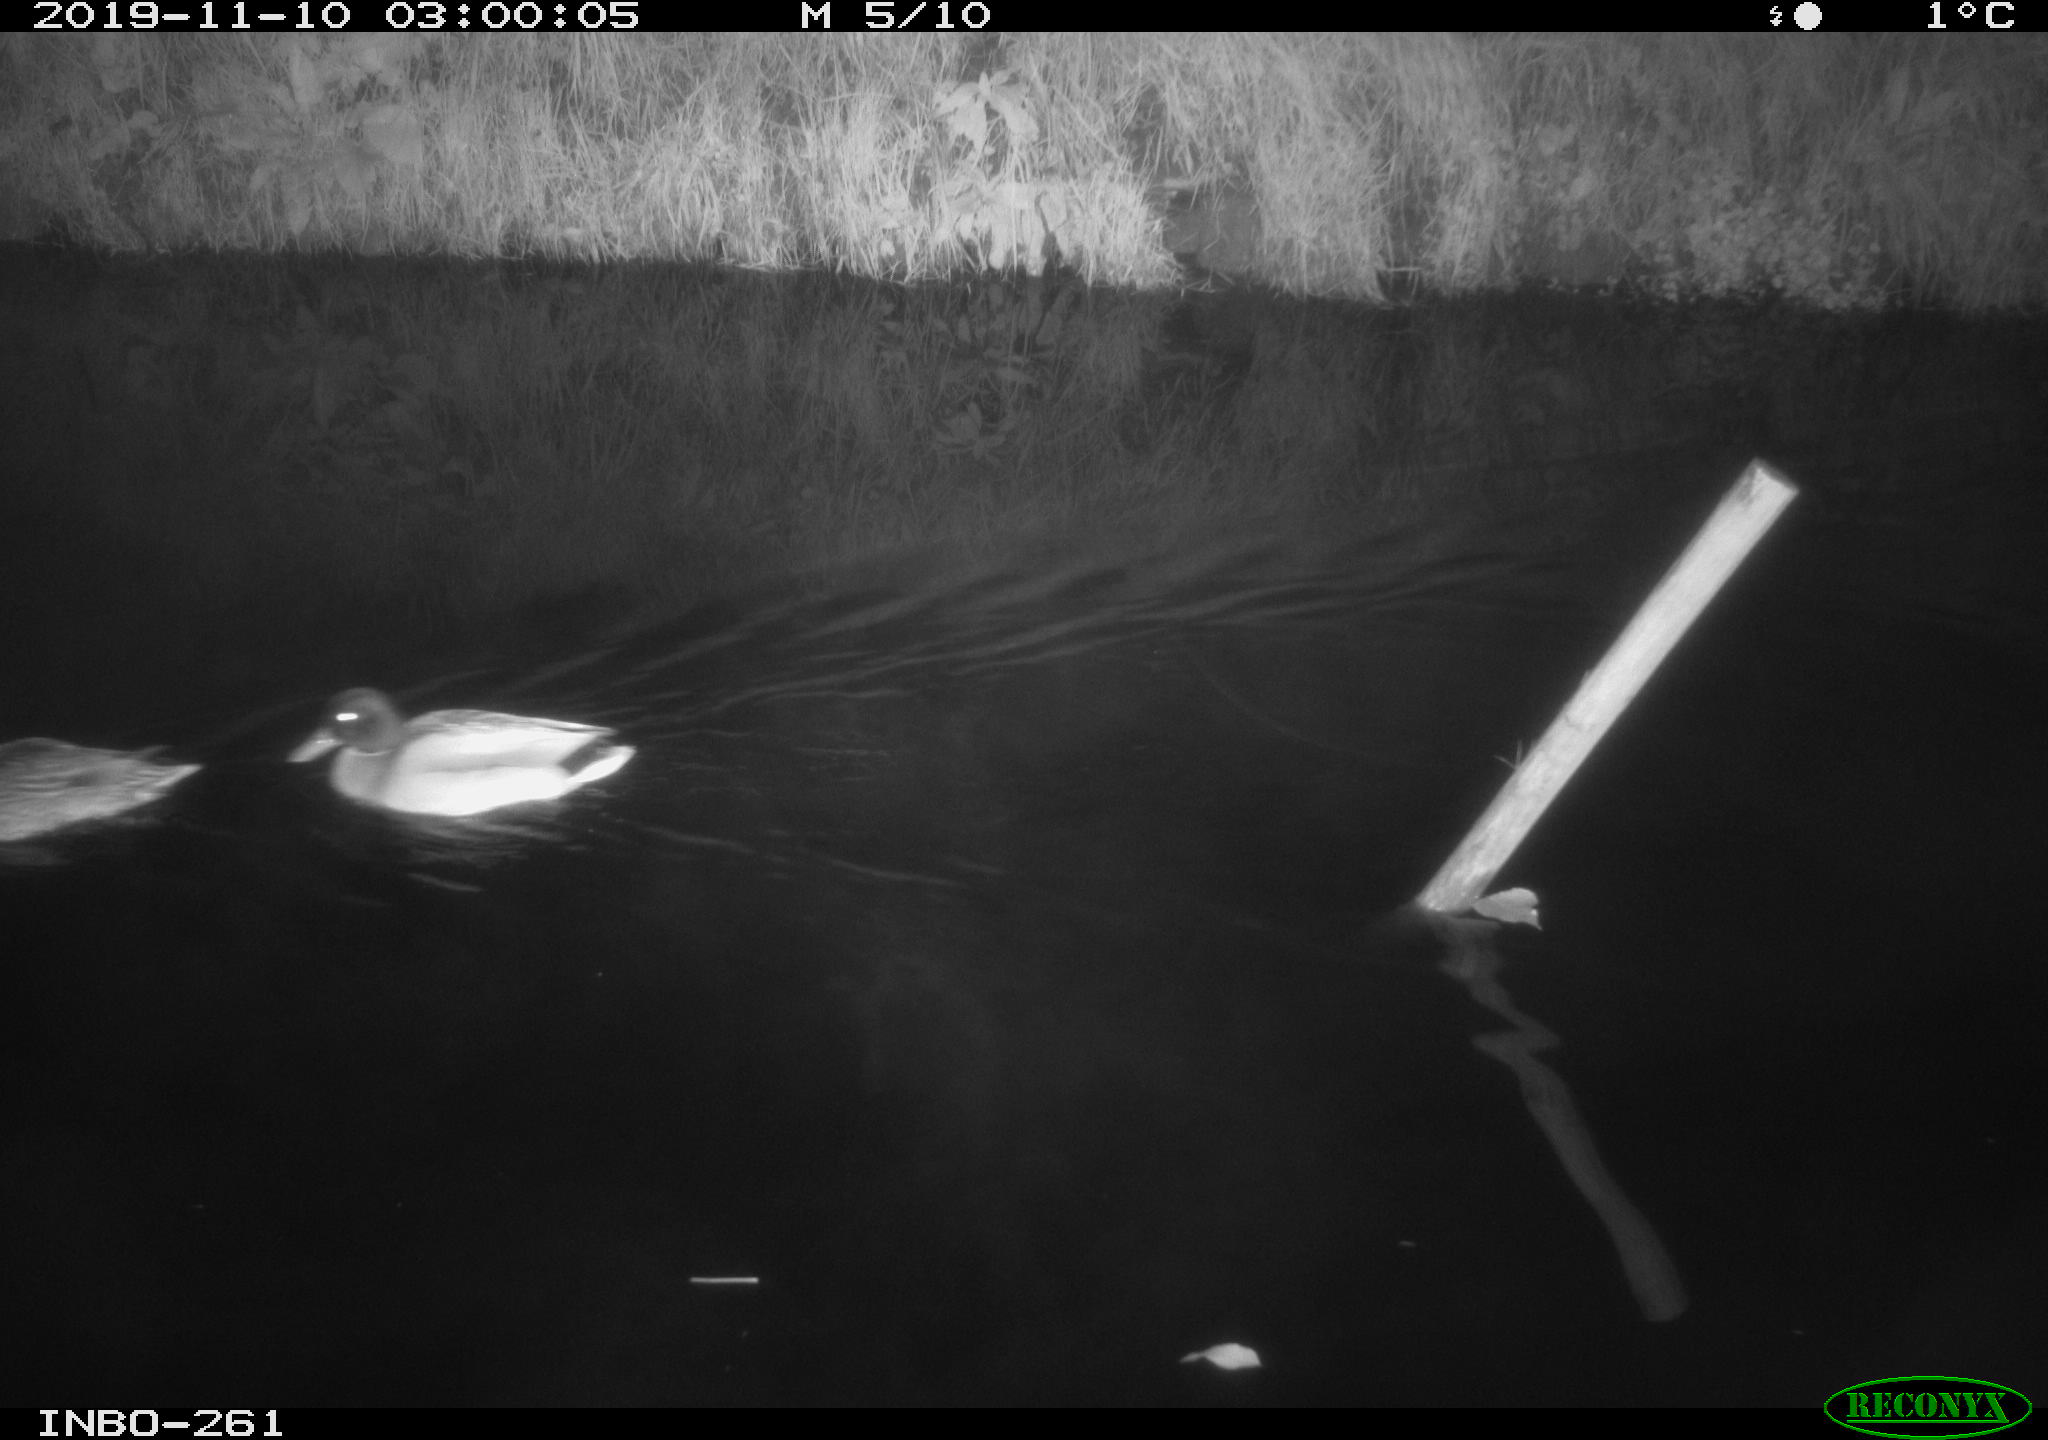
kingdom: Animalia
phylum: Chordata
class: Aves
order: Anseriformes
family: Anatidae
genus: Anas
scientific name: Anas platyrhynchos
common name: Mallard
